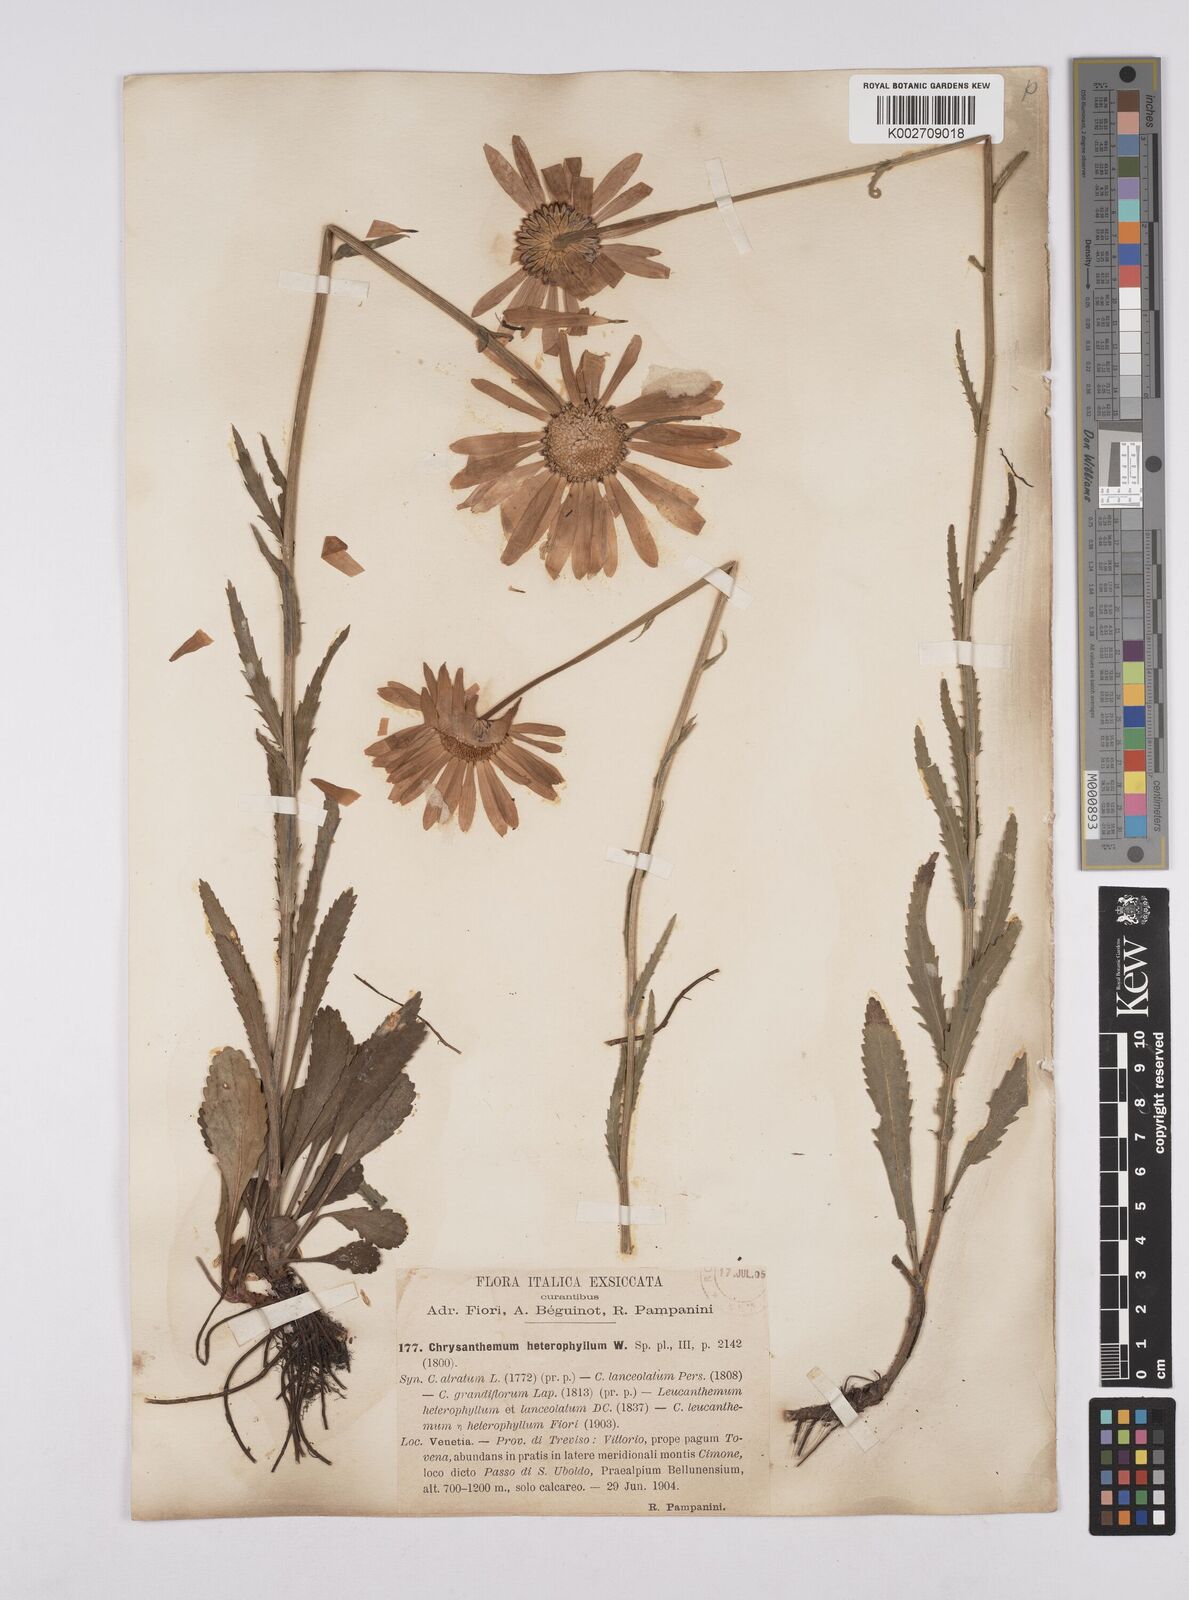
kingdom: Plantae
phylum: Tracheophyta
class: Magnoliopsida
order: Asterales
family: Asteraceae
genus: Leucanthemum
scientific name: Leucanthemum heterophyllum
